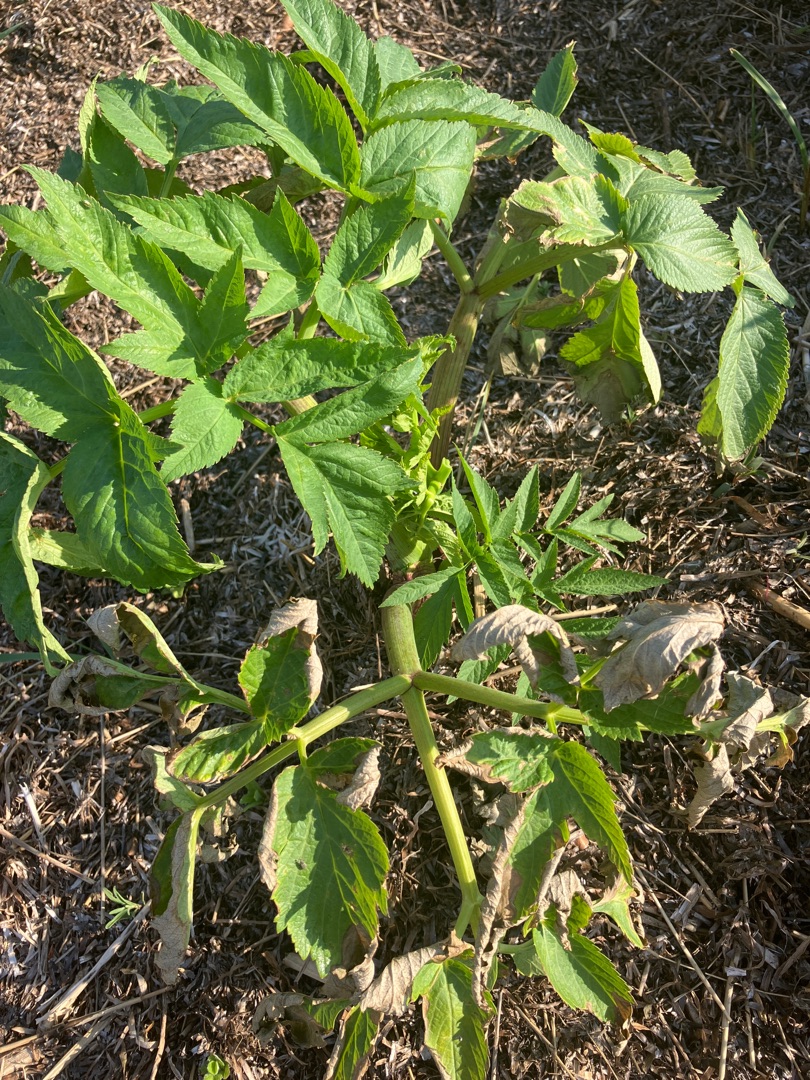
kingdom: Plantae
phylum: Tracheophyta
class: Magnoliopsida
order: Apiales
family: Apiaceae
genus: Angelica
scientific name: Angelica archangelica
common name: Kvan
